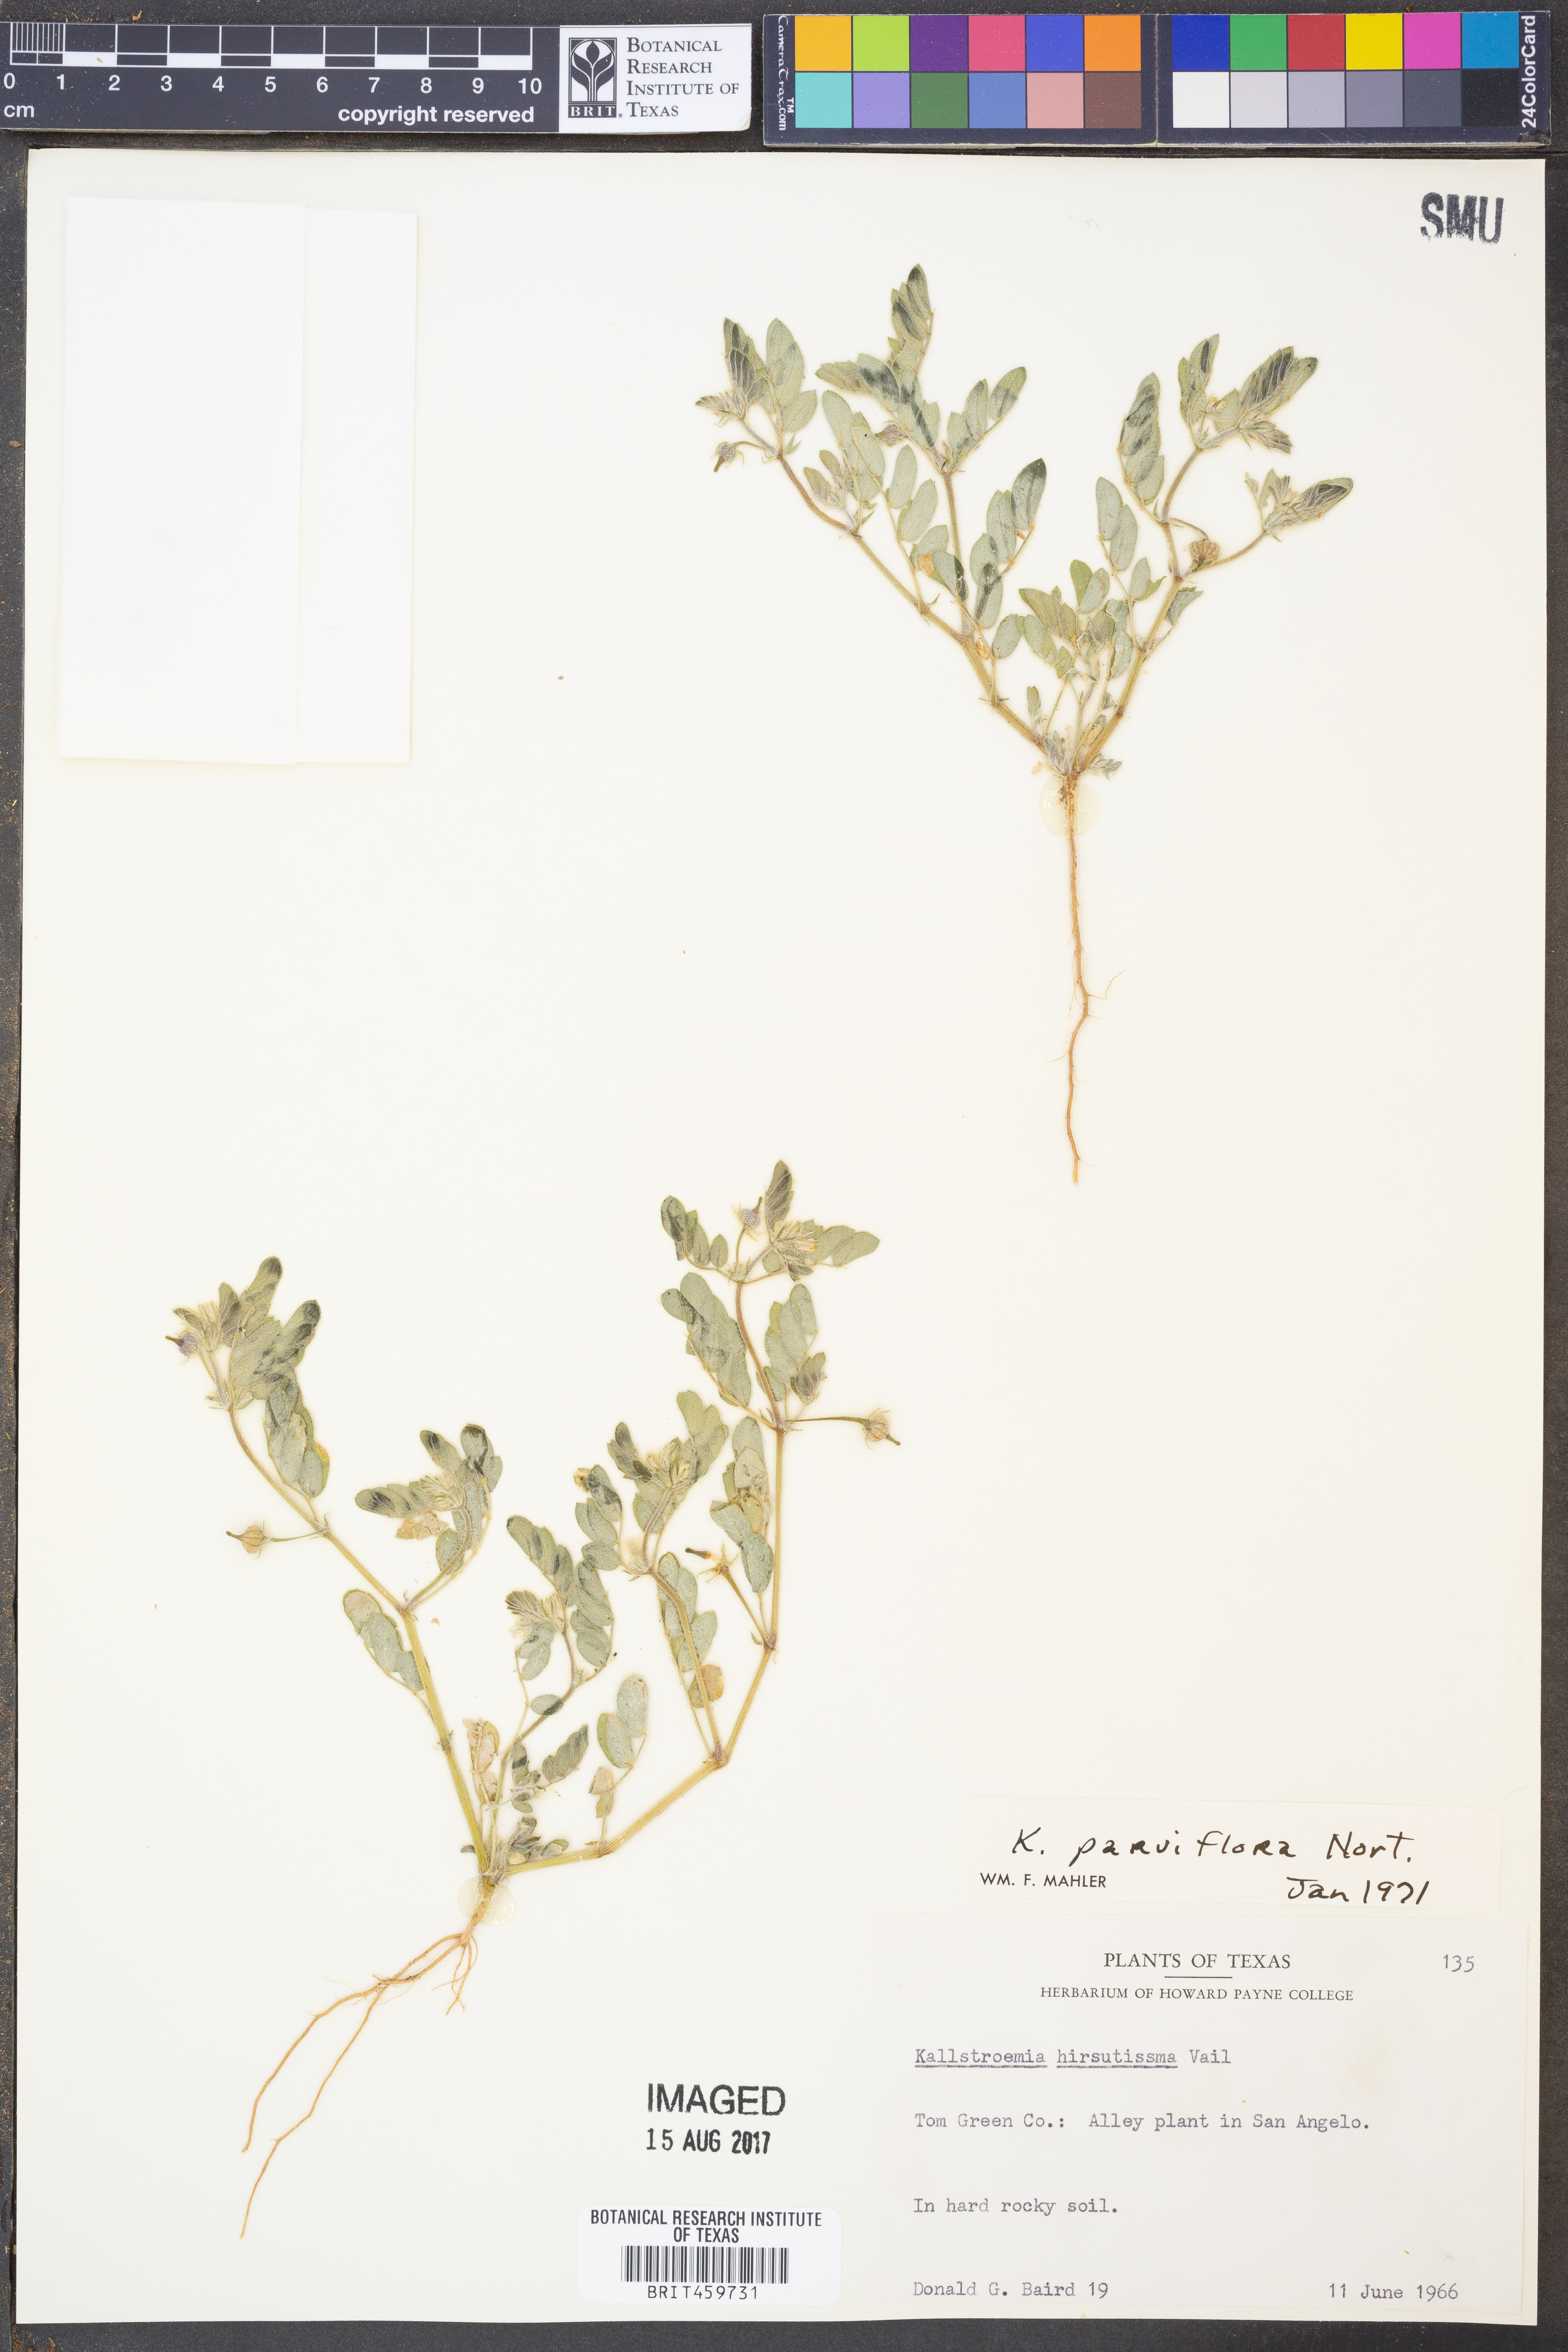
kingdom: Plantae
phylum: Tracheophyta
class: Magnoliopsida
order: Zygophyllales
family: Zygophyllaceae
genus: Kallstroemia
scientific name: Kallstroemia parviflora
